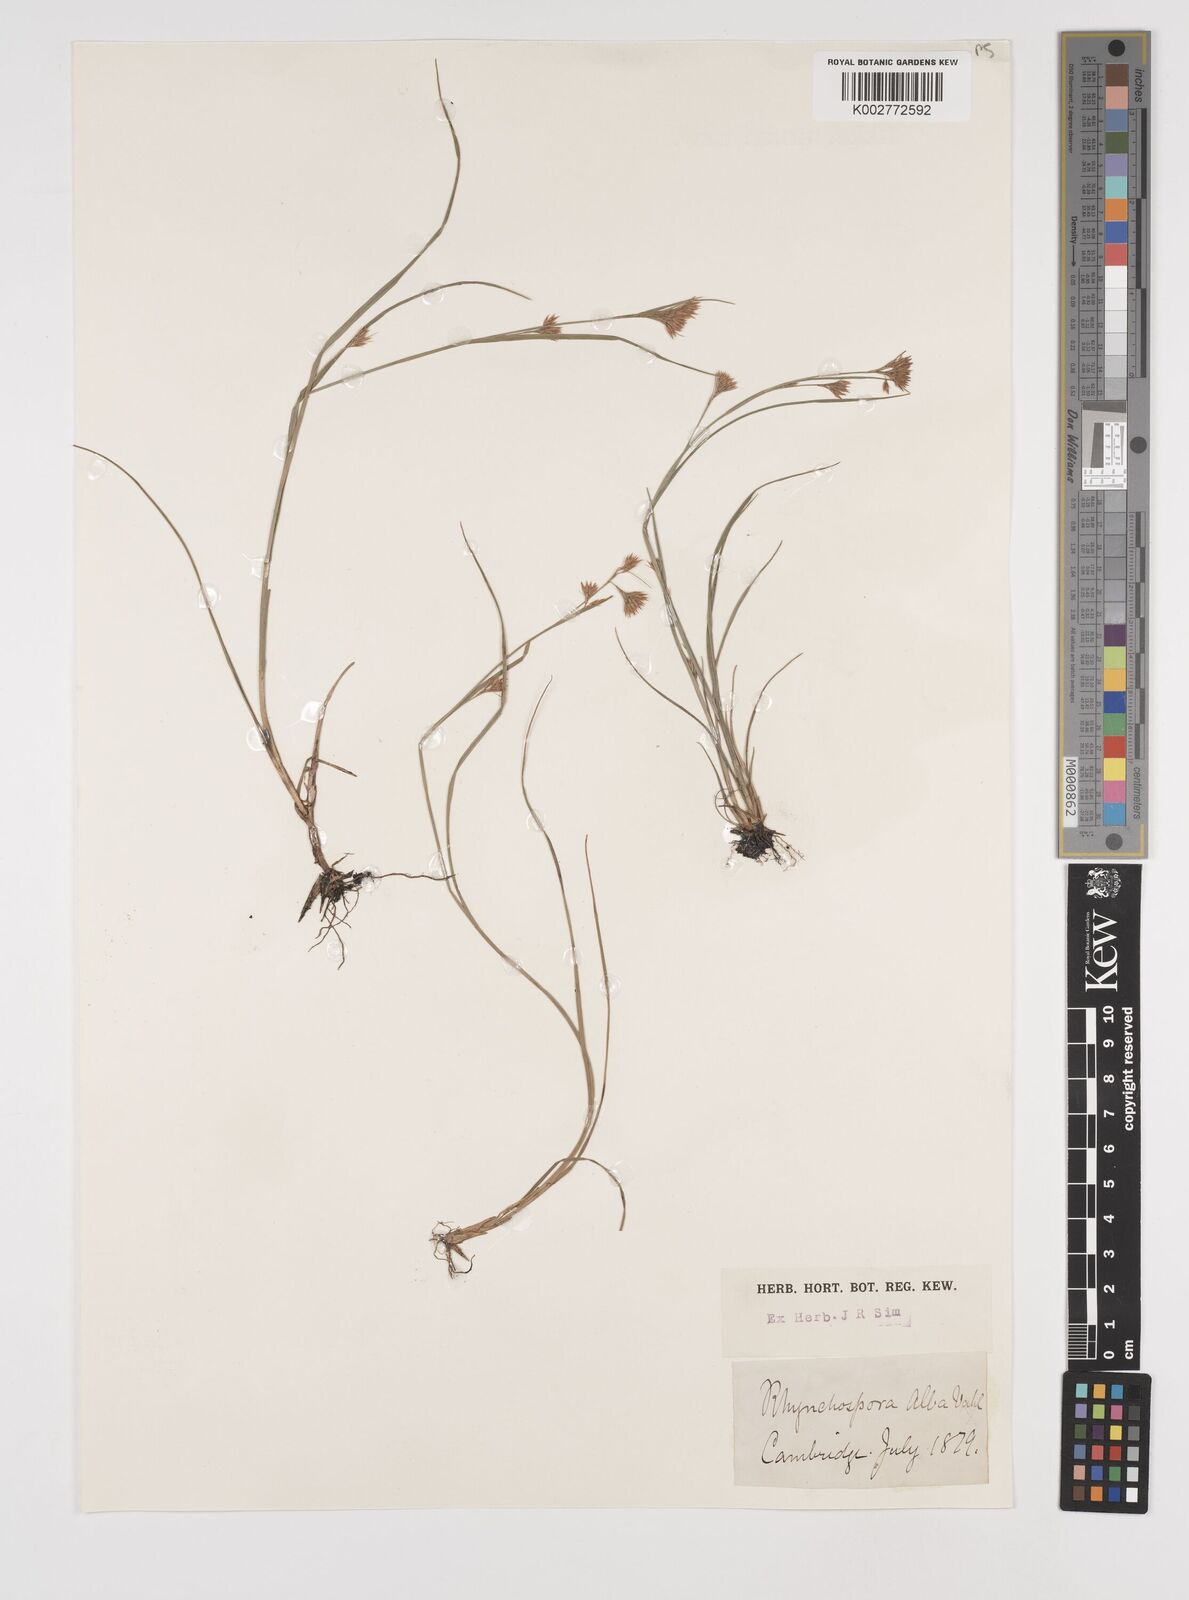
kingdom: Plantae
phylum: Tracheophyta
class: Liliopsida
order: Poales
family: Cyperaceae
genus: Rhynchospora
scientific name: Rhynchospora alba
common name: White beak-sedge
